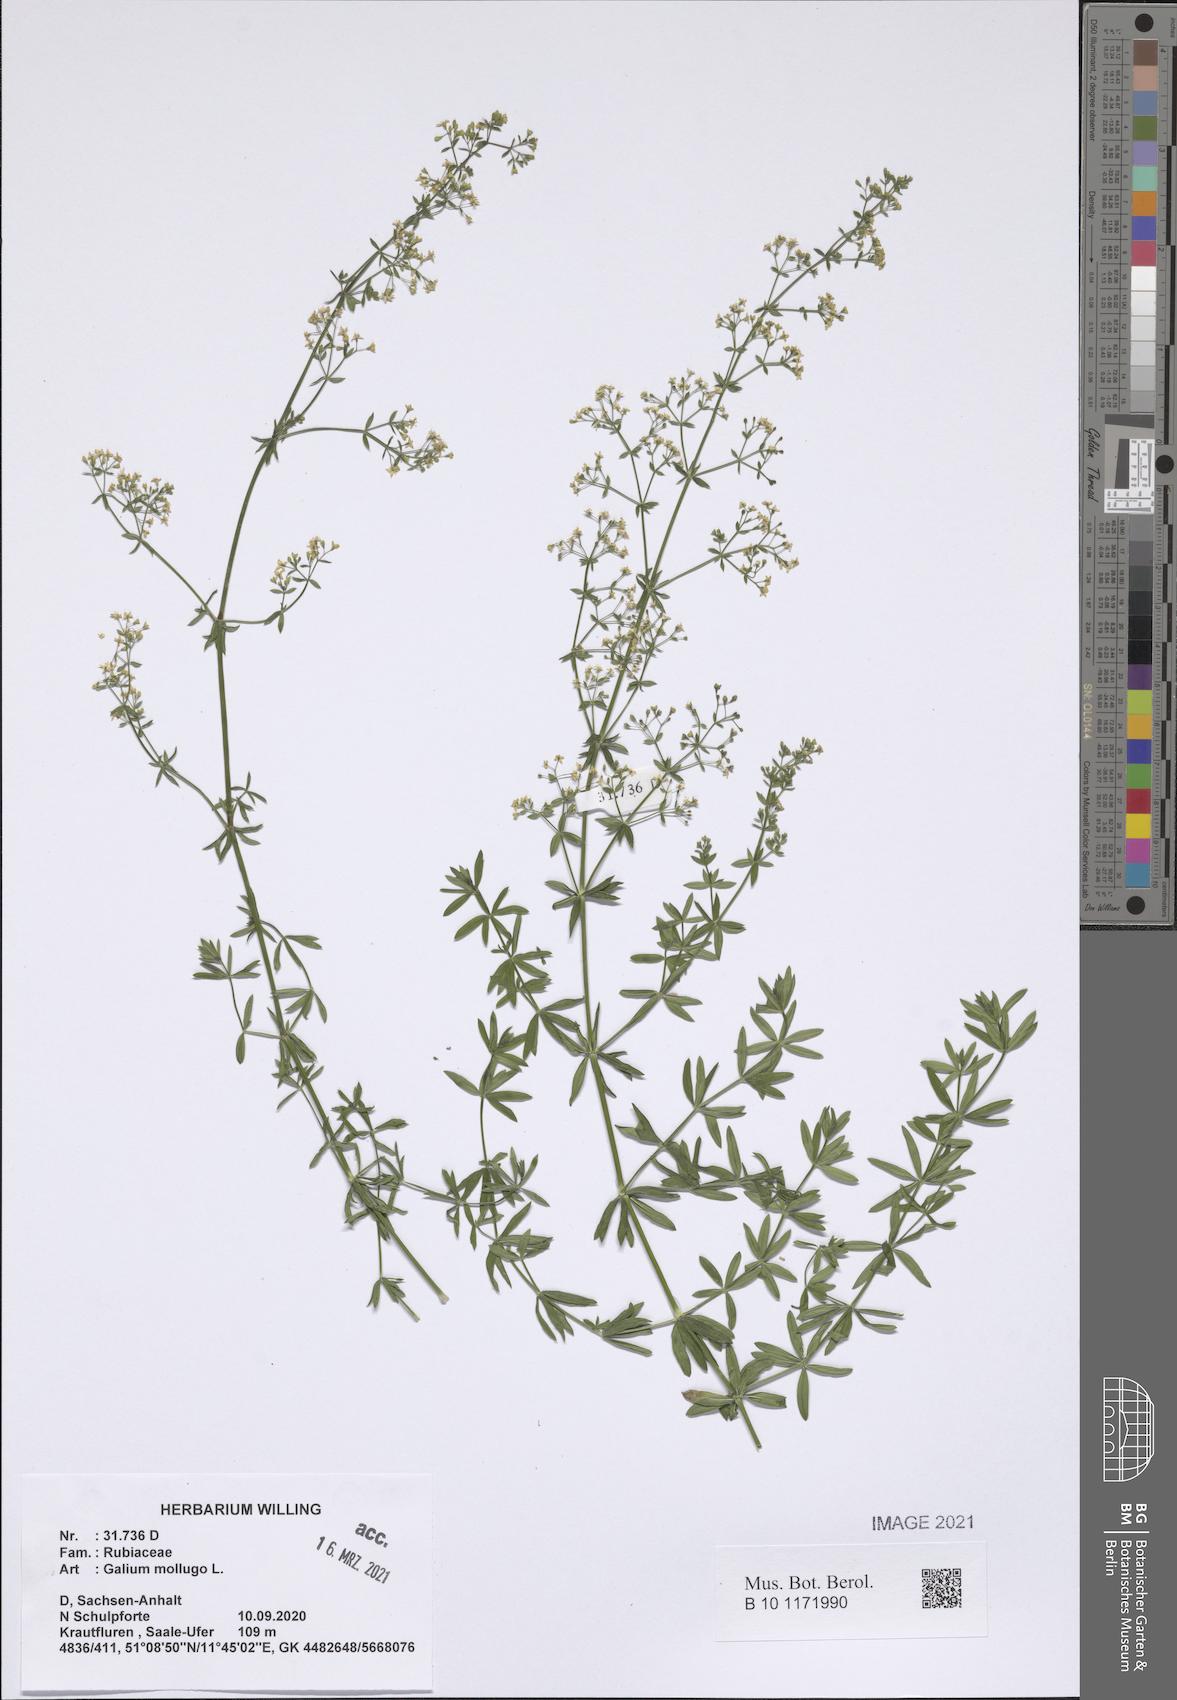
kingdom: Plantae
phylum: Tracheophyta
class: Magnoliopsida
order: Gentianales
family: Rubiaceae
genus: Galium
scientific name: Galium mollugo
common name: Hedge bedstraw
